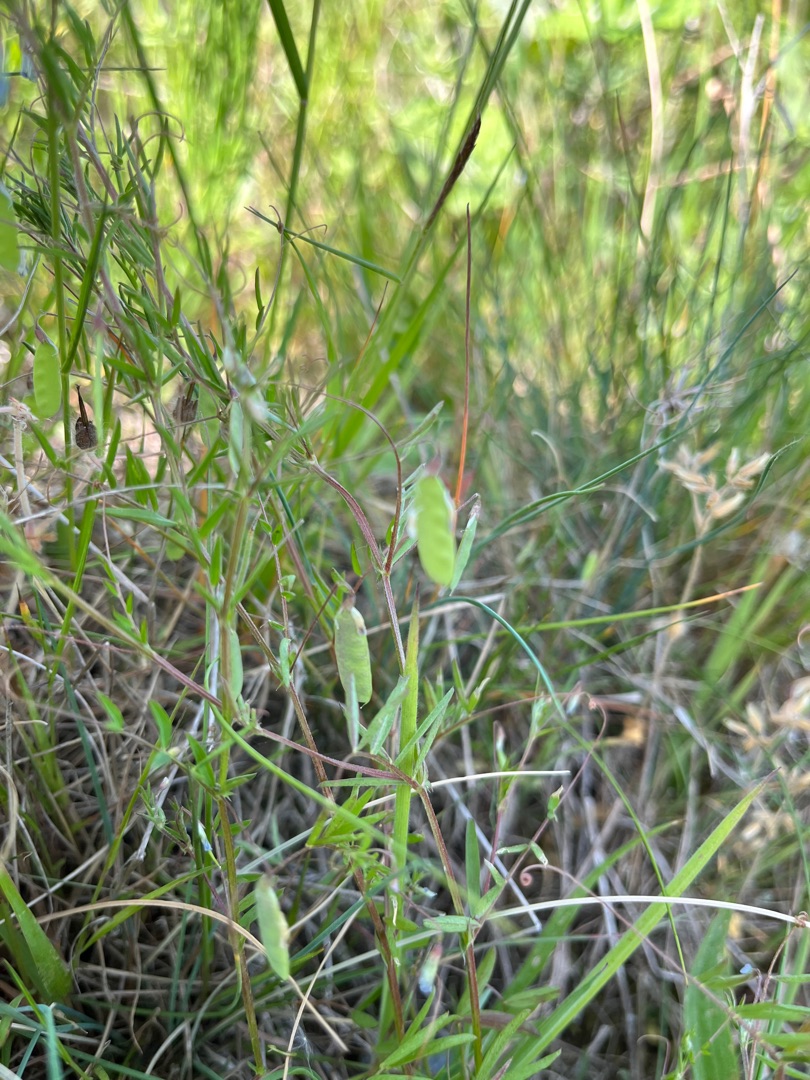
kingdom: Plantae
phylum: Tracheophyta
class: Magnoliopsida
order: Fabales
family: Fabaceae
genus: Vicia
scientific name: Vicia tetrasperma
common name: Tadder-vikke
